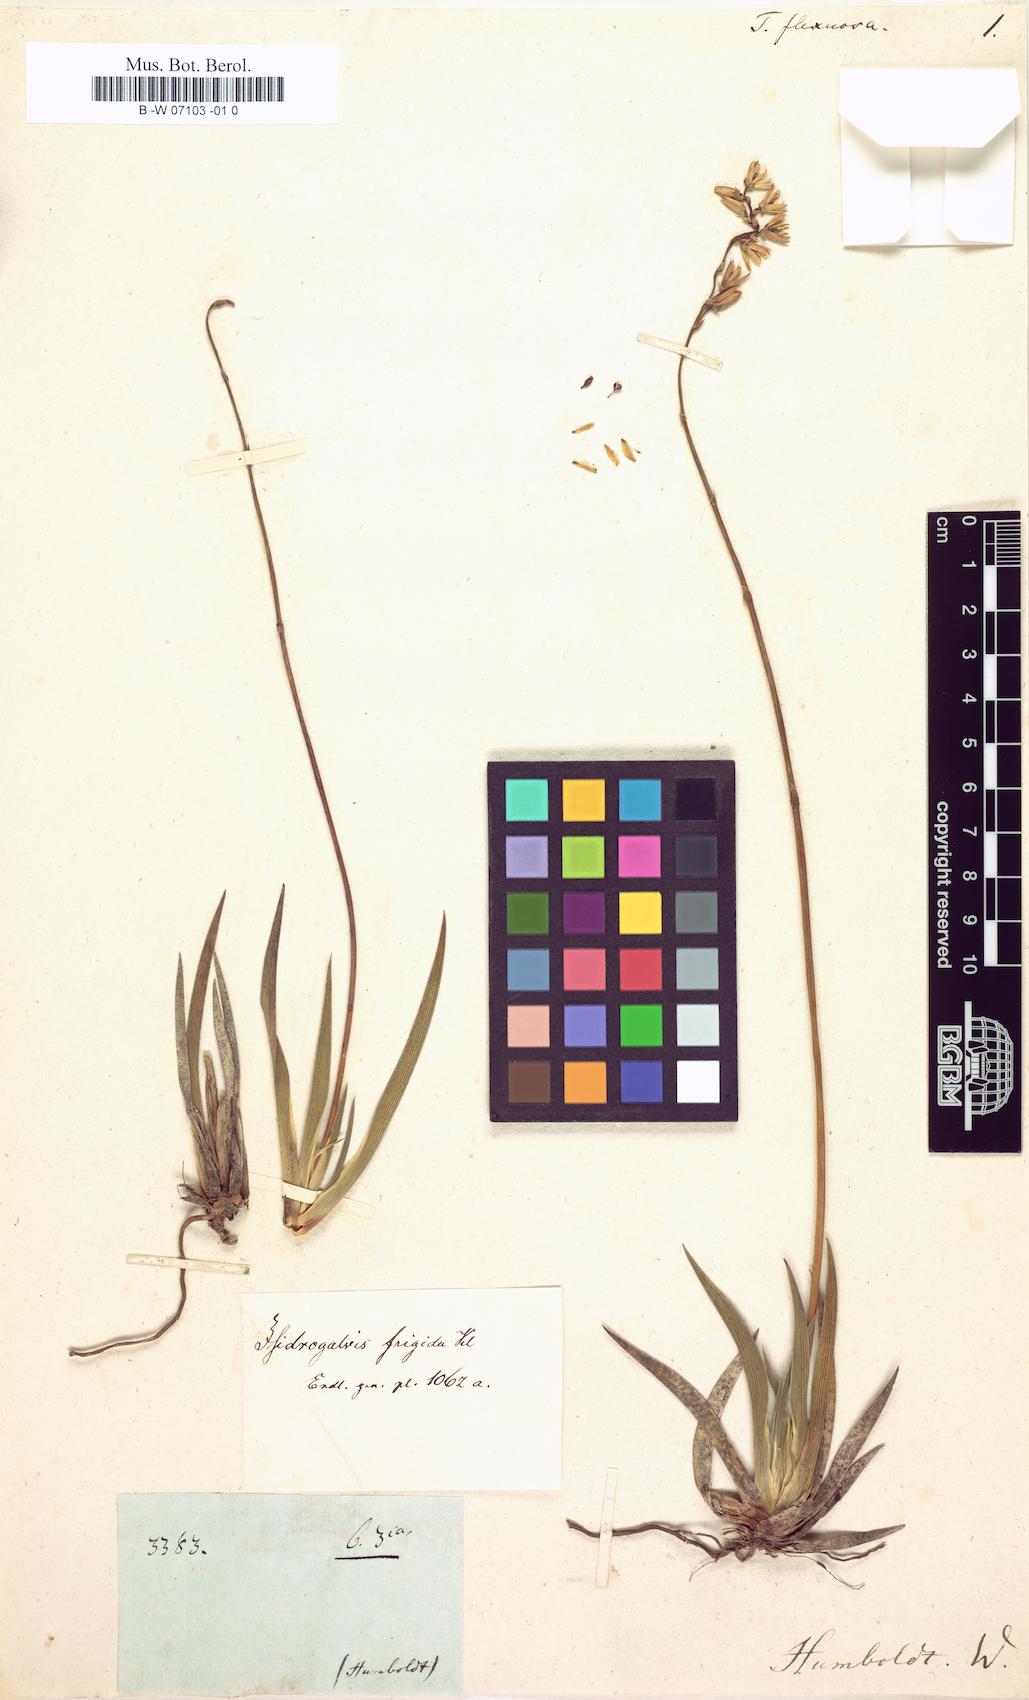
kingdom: Plantae
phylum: Tracheophyta
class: Liliopsida
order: Alismatales
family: Tofieldiaceae
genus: Harperocallis
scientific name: Harperocallis falcata
